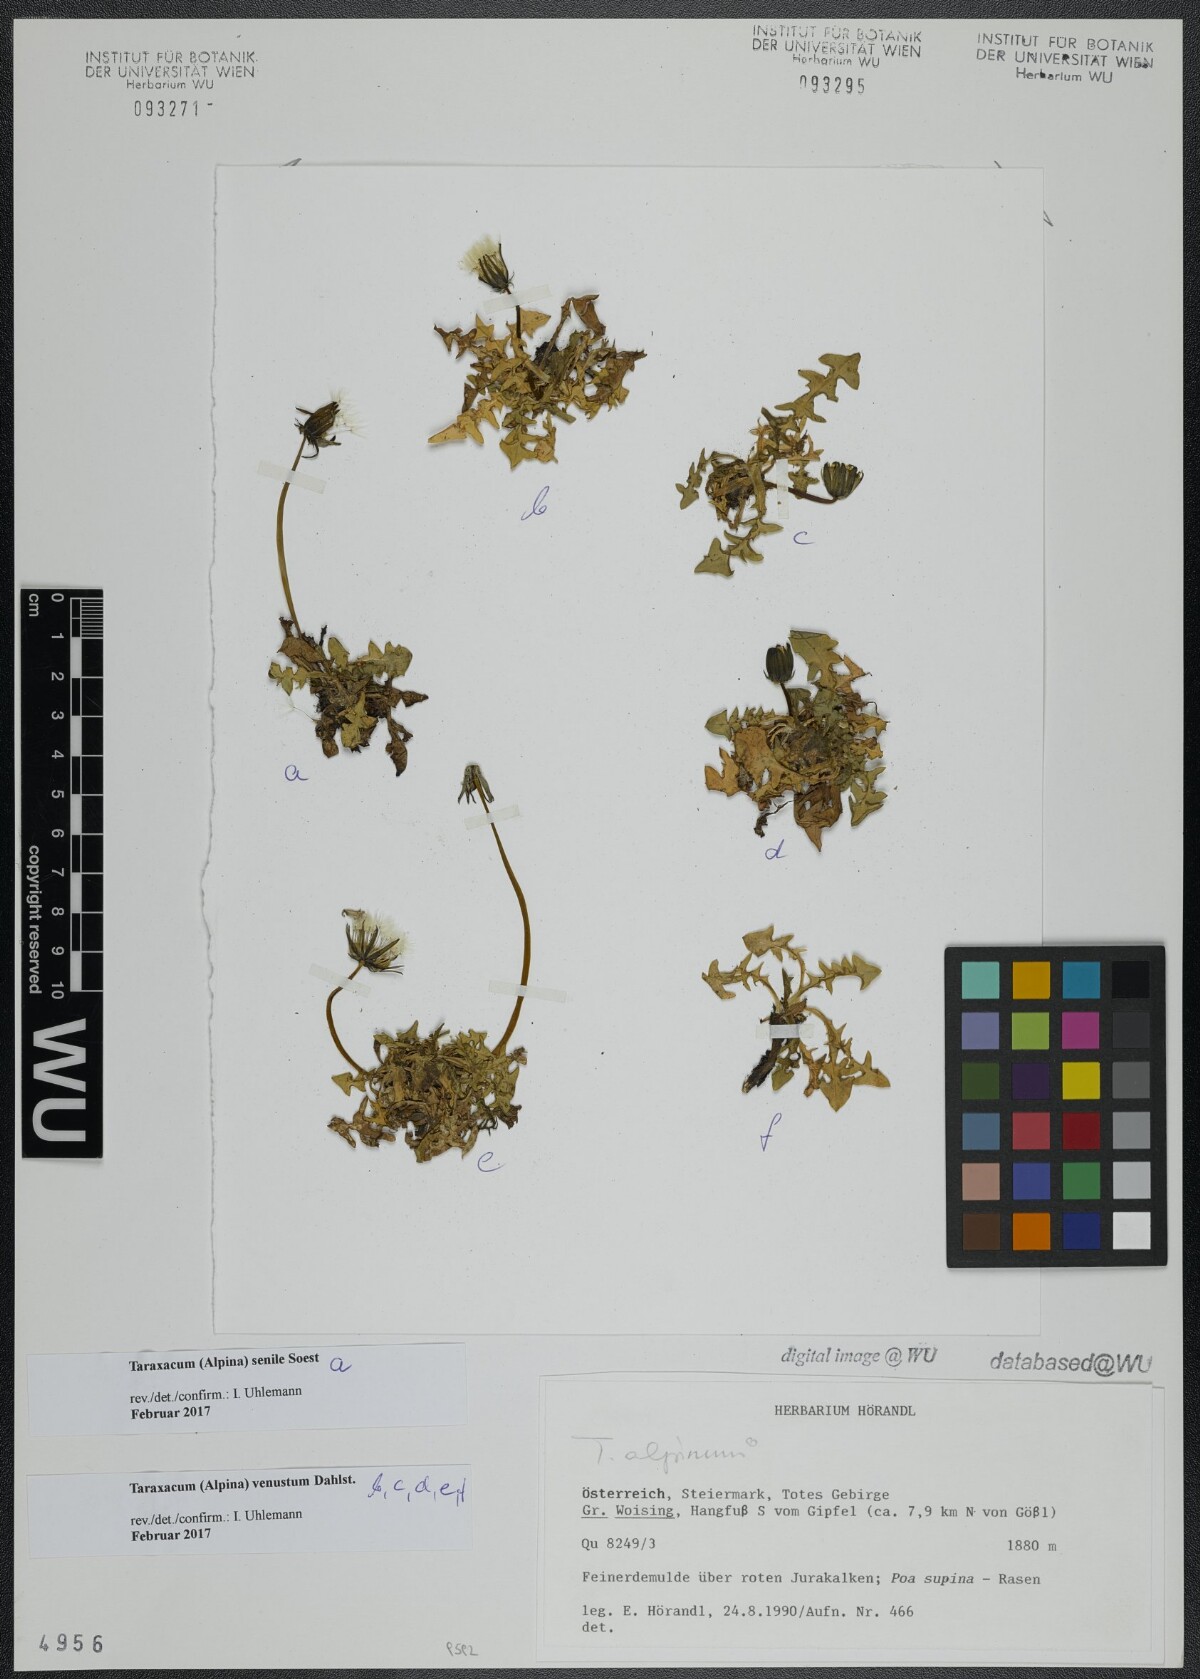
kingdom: Plantae
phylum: Tracheophyta
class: Magnoliopsida
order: Asterales
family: Asteraceae
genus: Taraxacum
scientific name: Taraxacum senile
